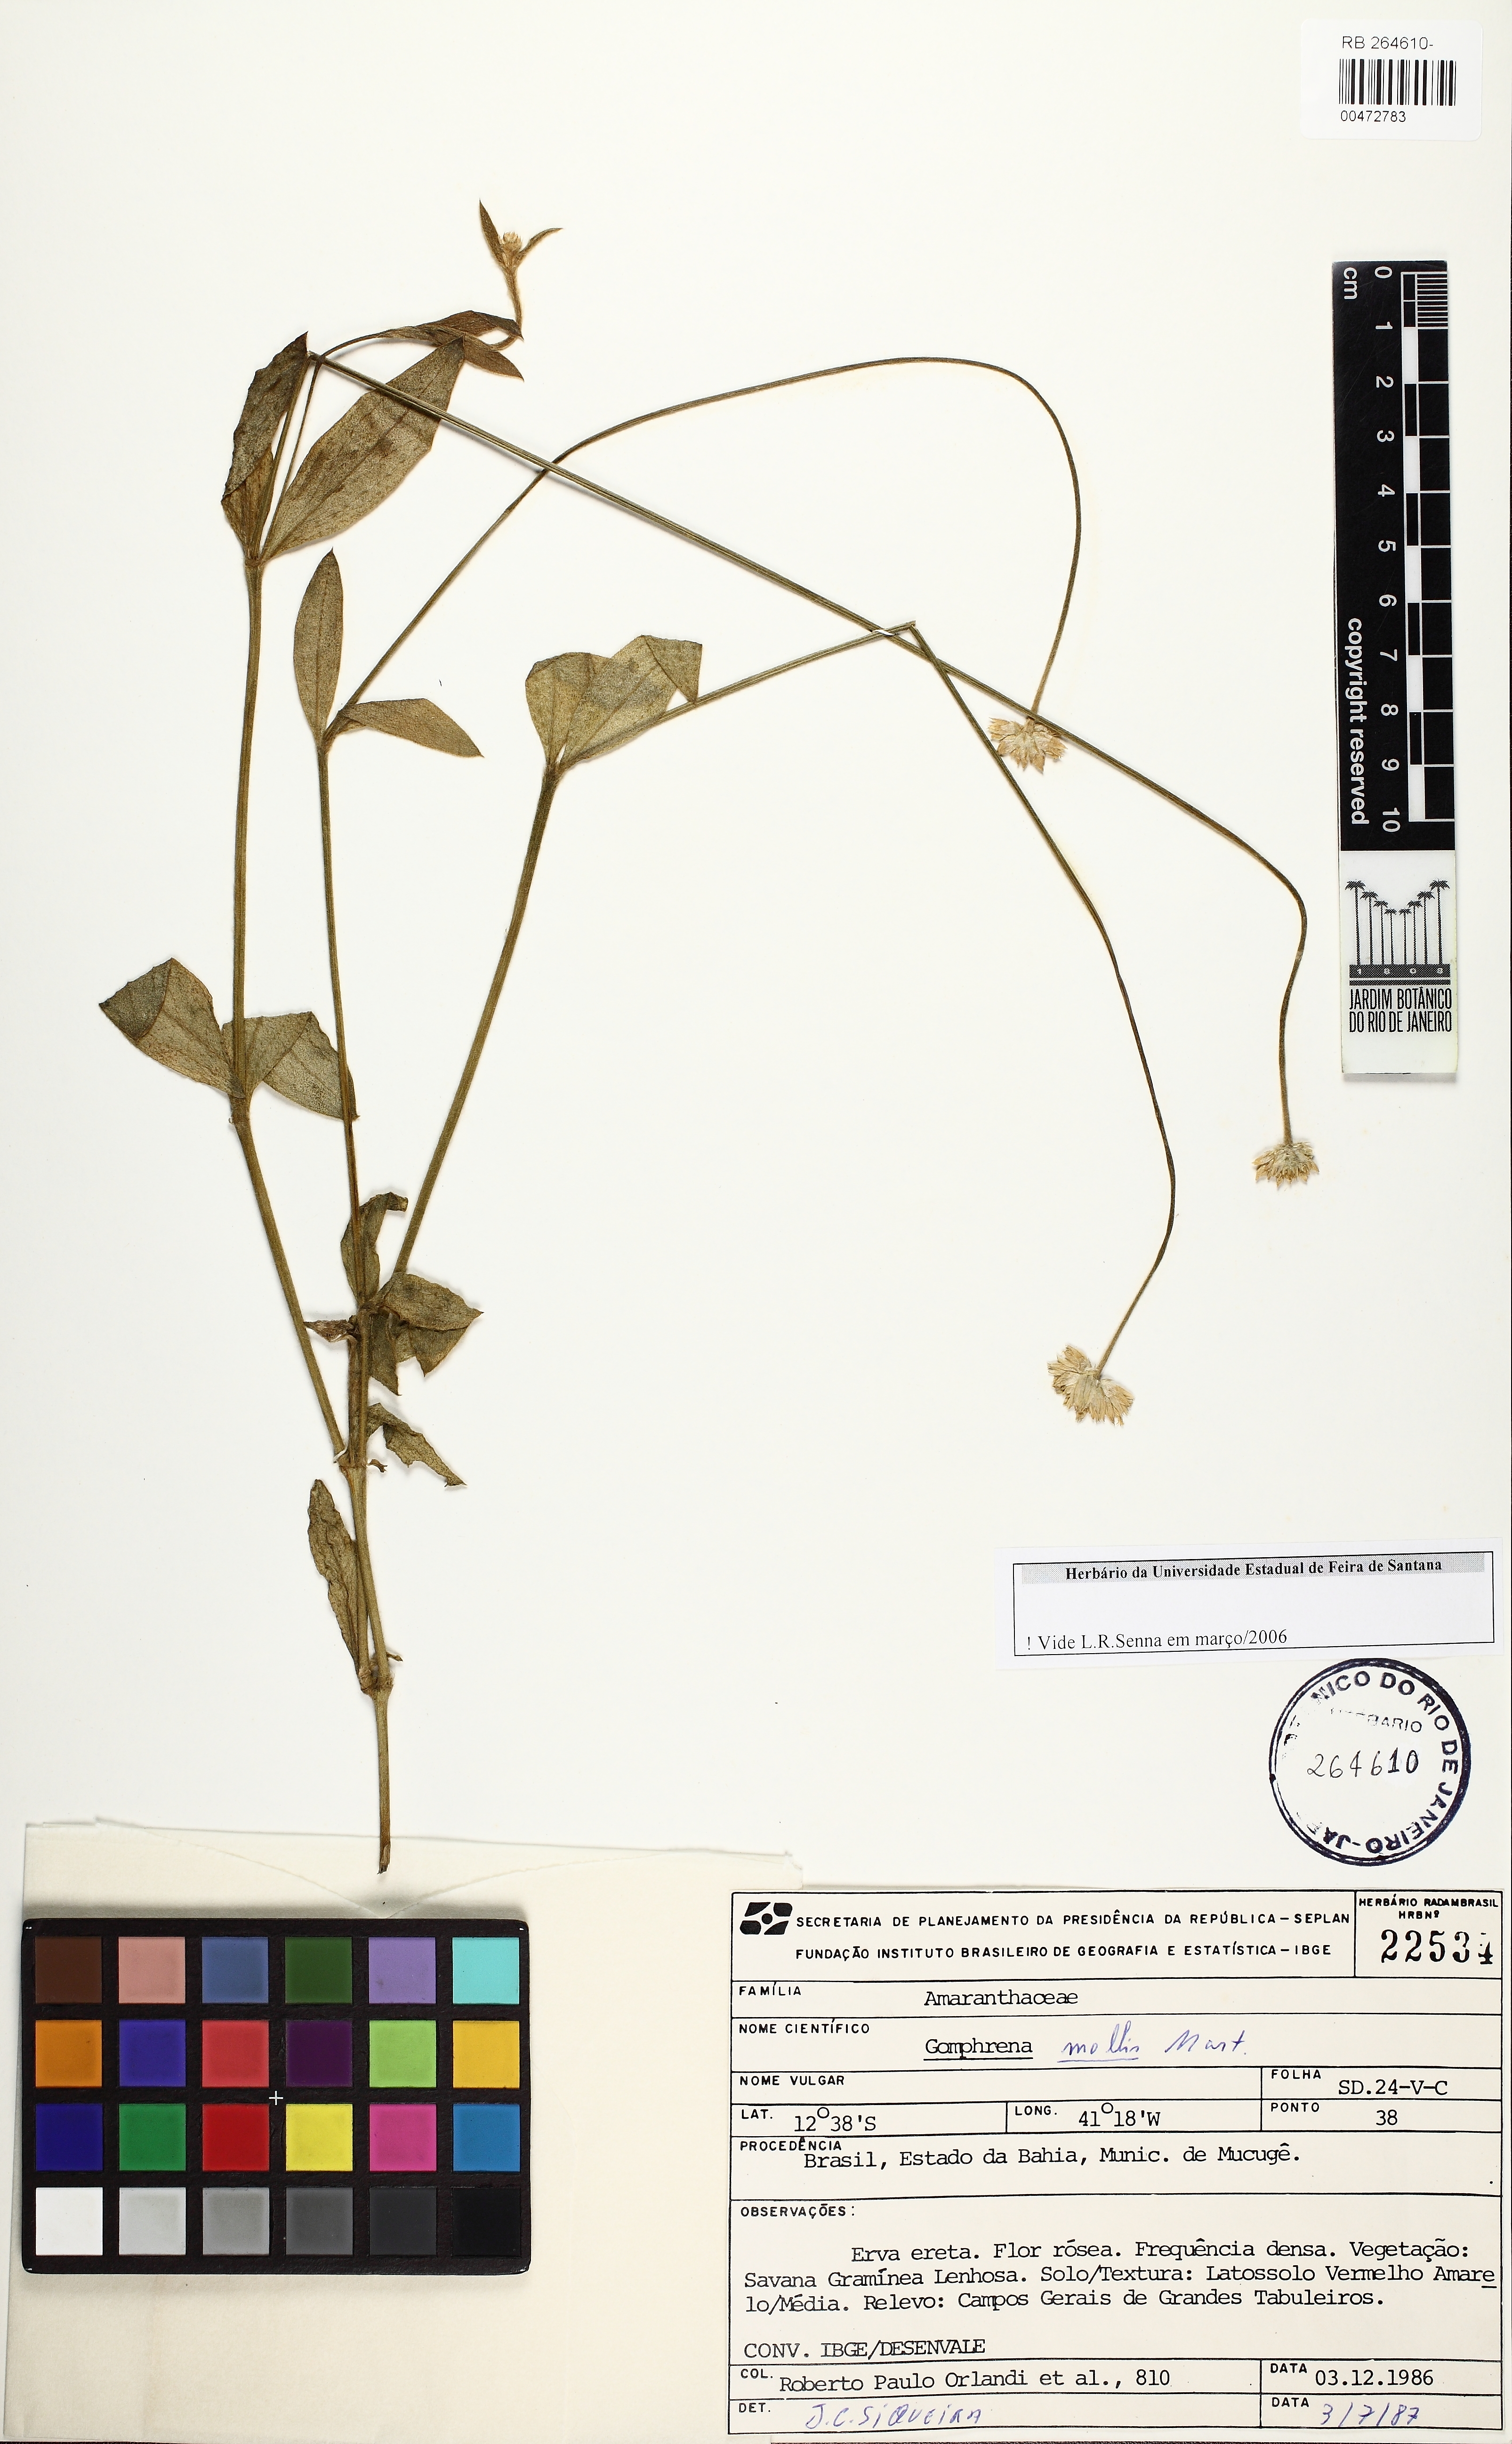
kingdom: Plantae
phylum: Tracheophyta
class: Magnoliopsida
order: Caryophyllales
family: Amaranthaceae
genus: Gomphrena
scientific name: Gomphrena mollis
